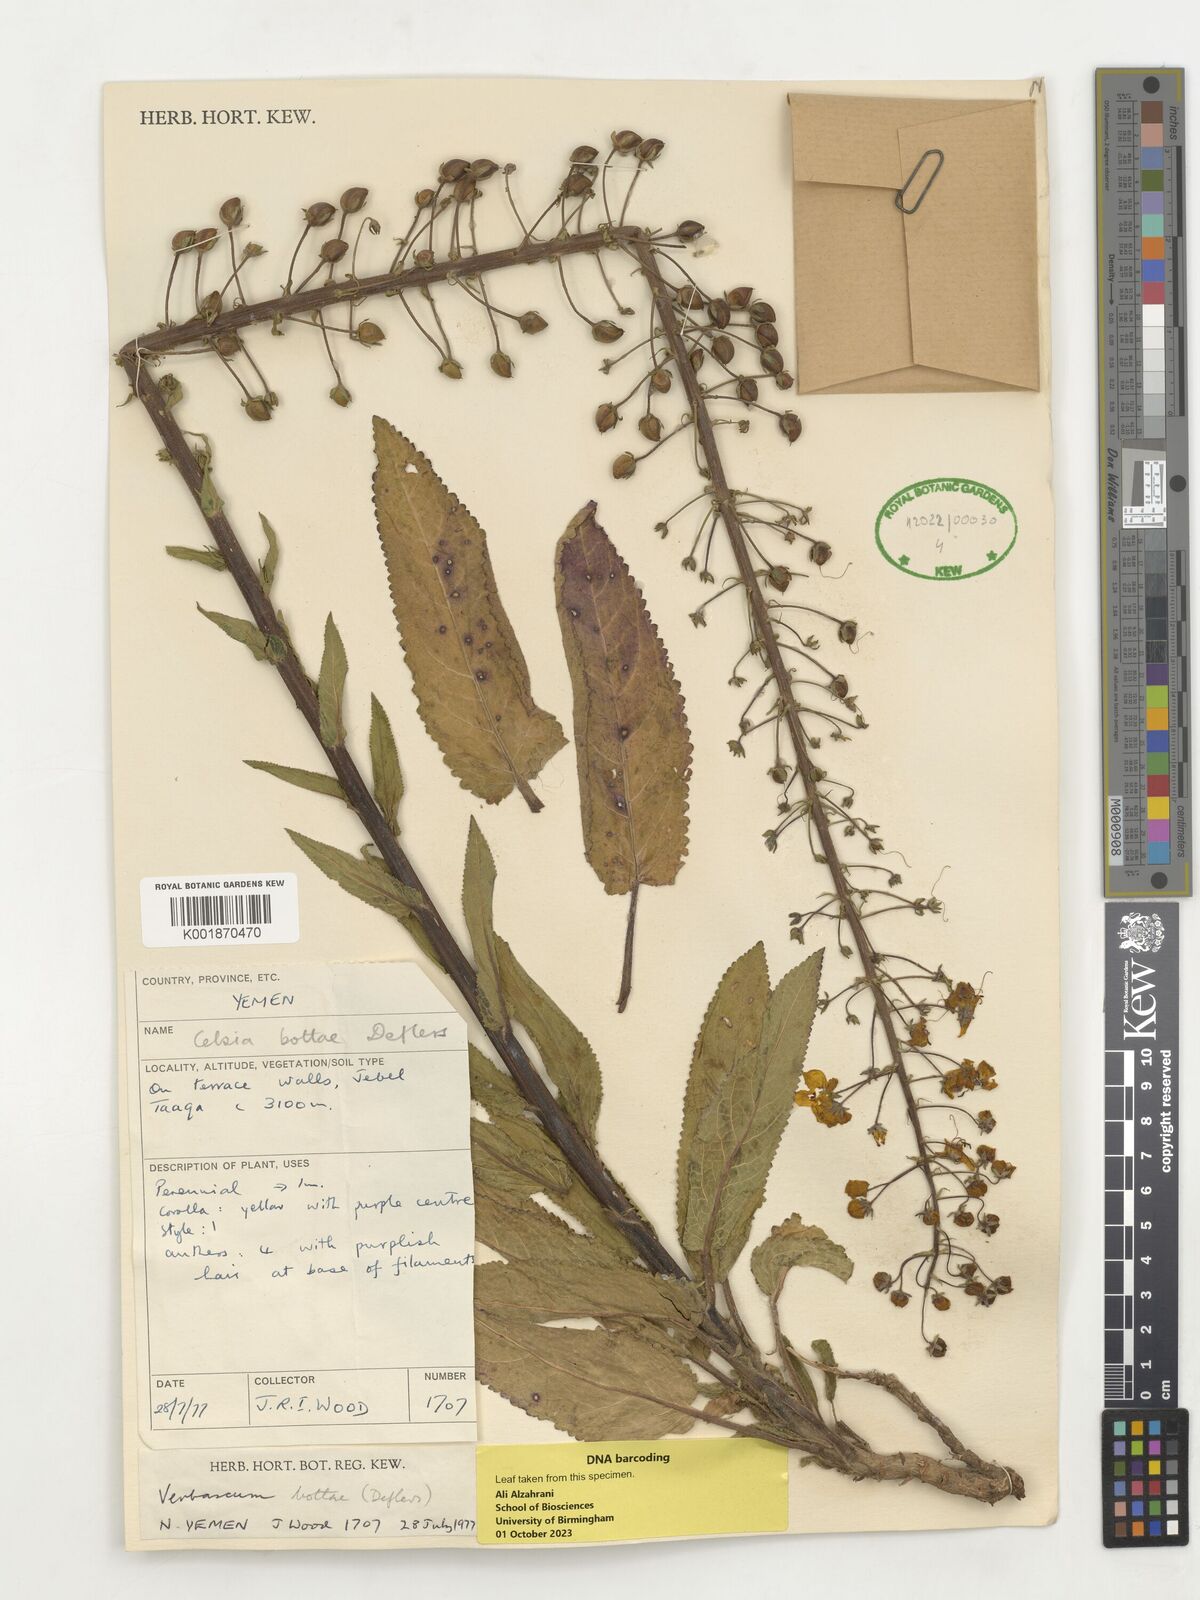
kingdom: Plantae
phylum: Tracheophyta
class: Magnoliopsida
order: Lamiales
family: Scrophulariaceae
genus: Rhabdotosperma
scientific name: Rhabdotosperma bottae
